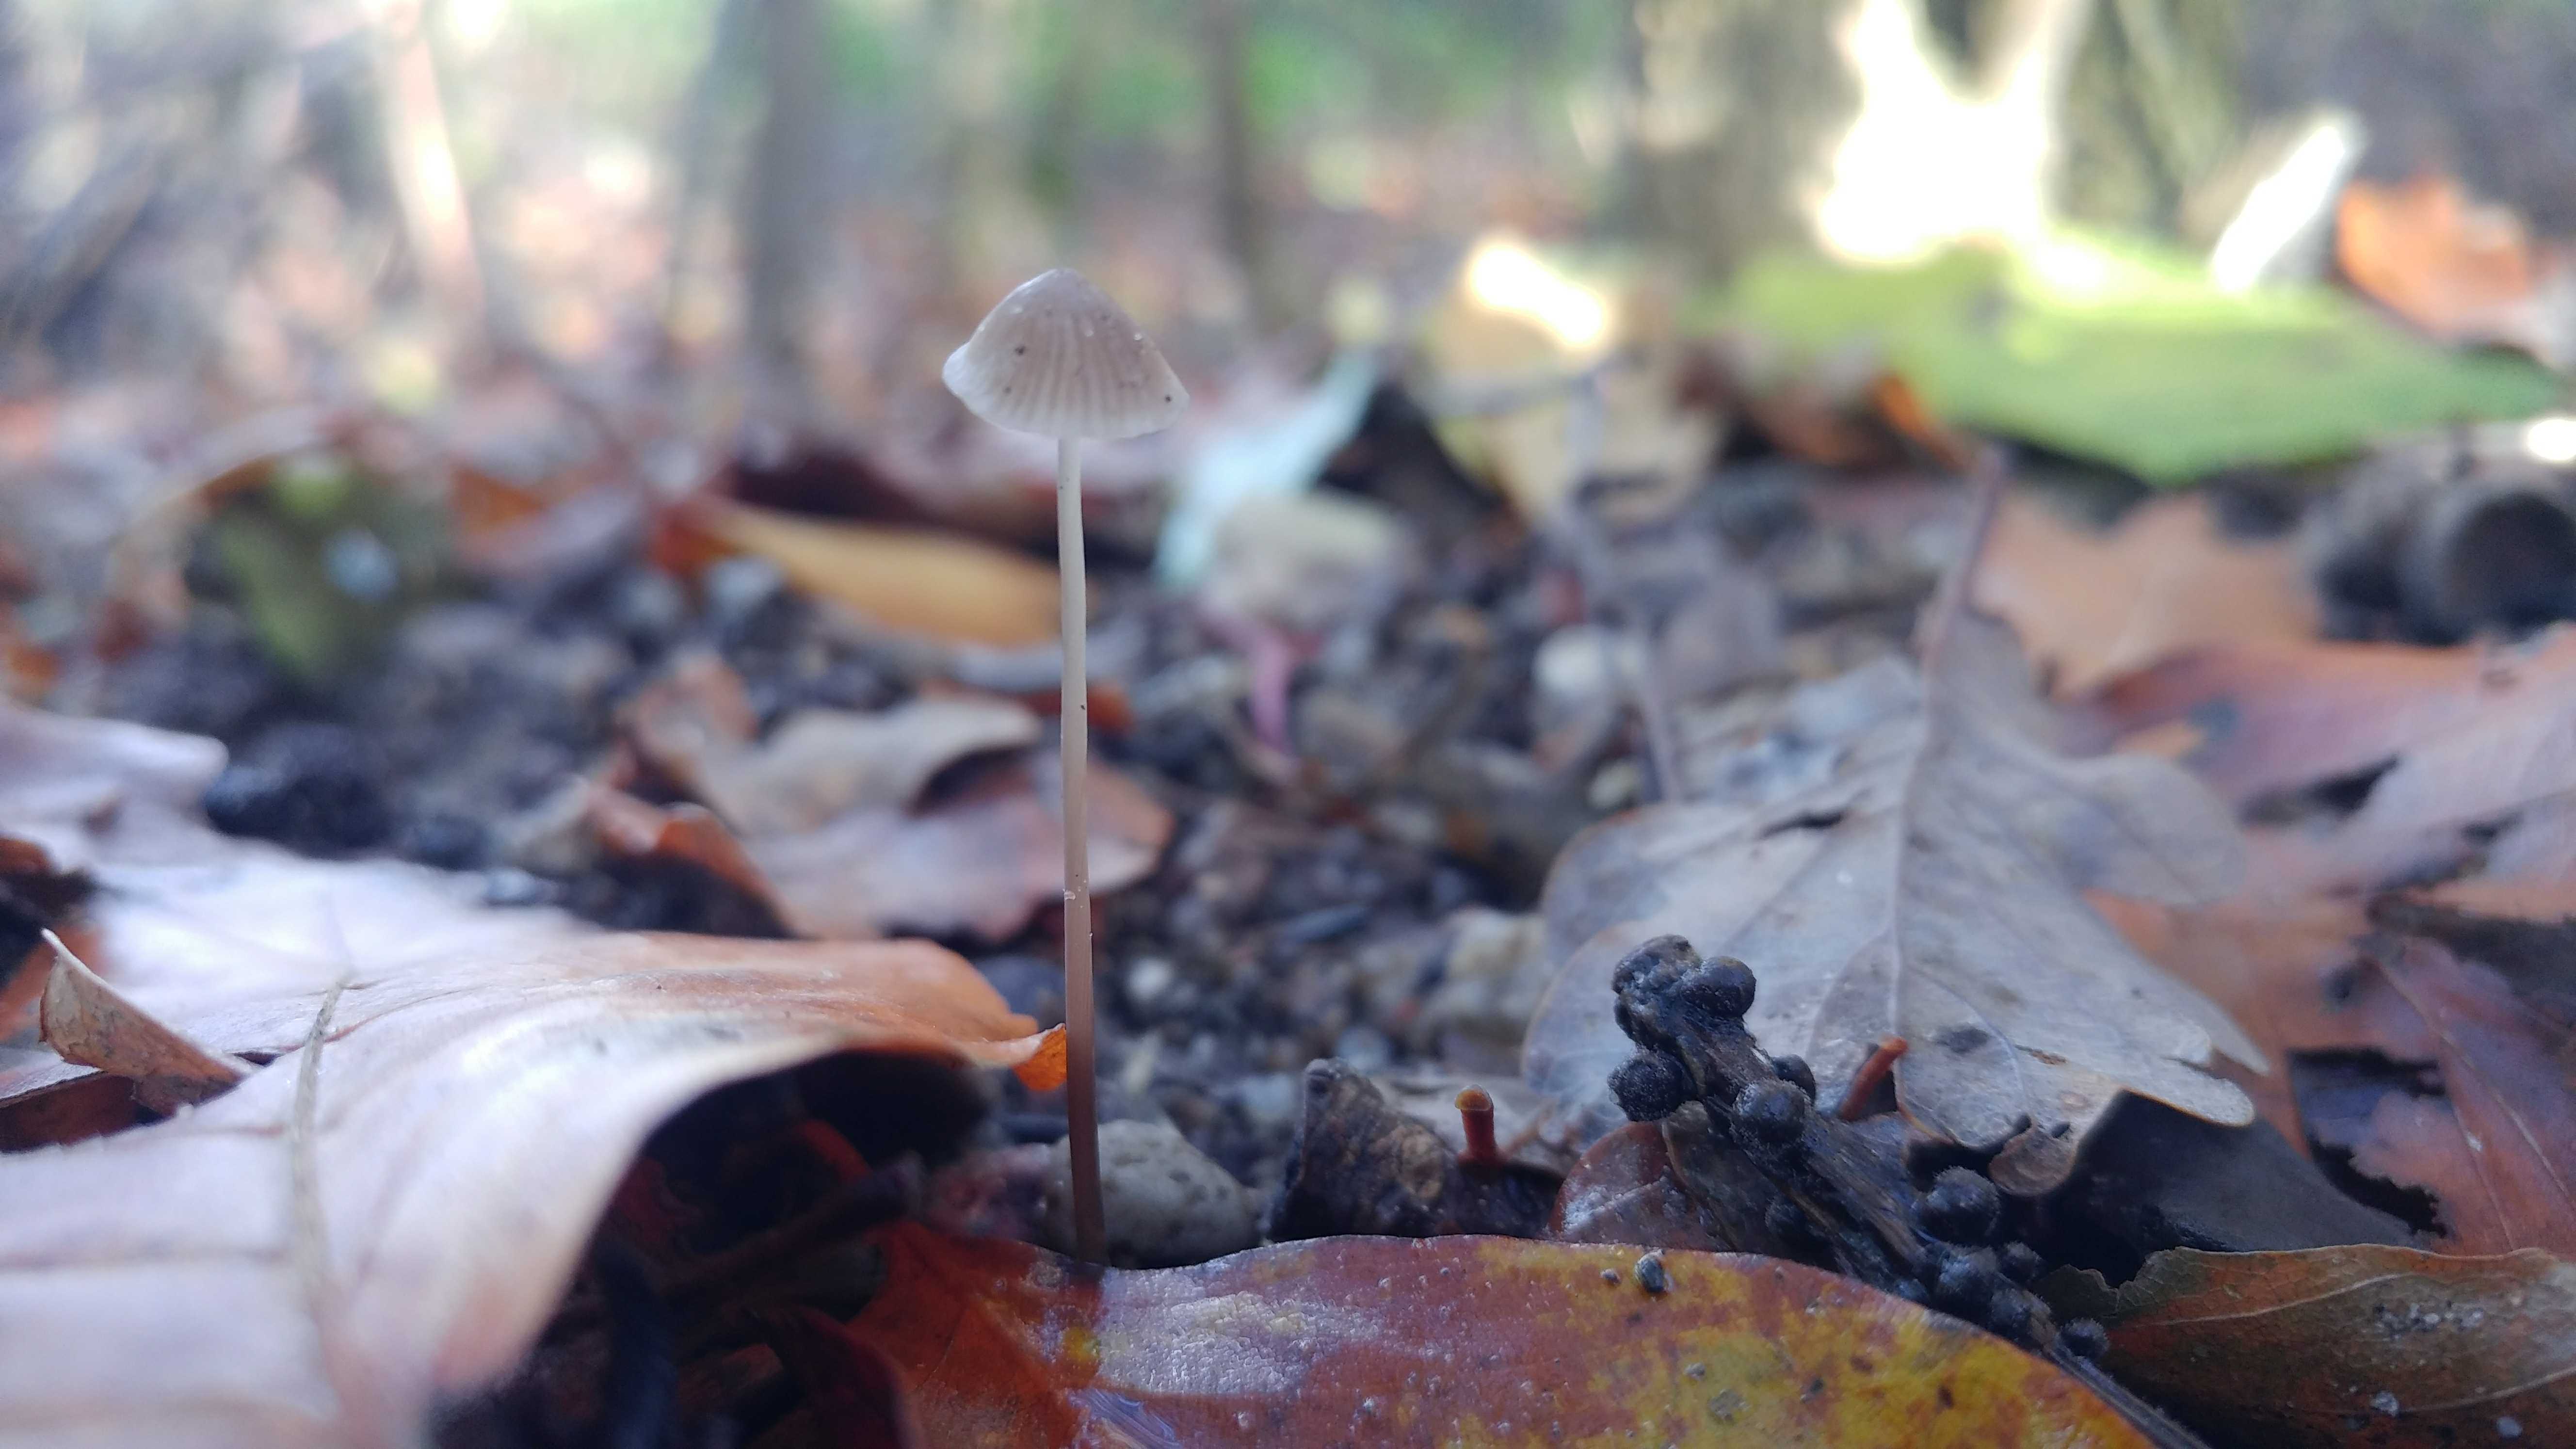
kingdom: Fungi
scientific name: Fungi
